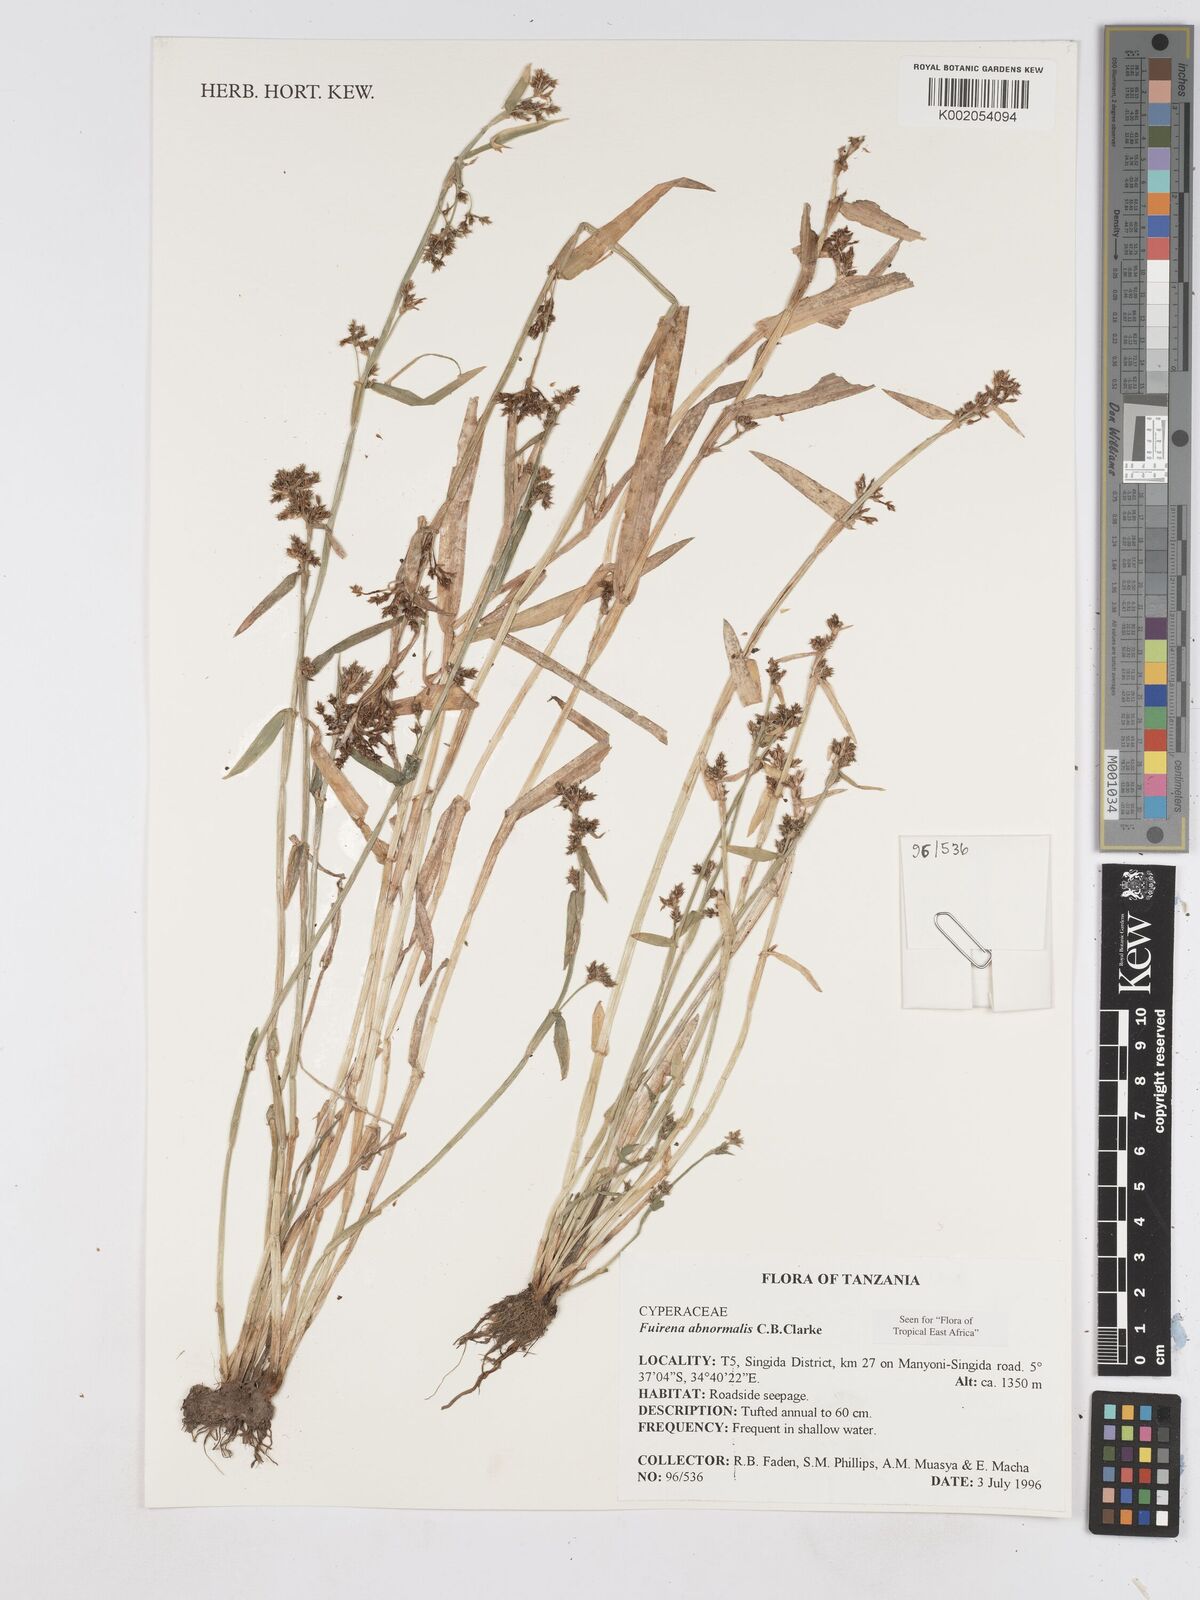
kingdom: Plantae
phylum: Tracheophyta
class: Liliopsida
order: Poales
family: Cyperaceae
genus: Fuirena
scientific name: Fuirena abnormalis
